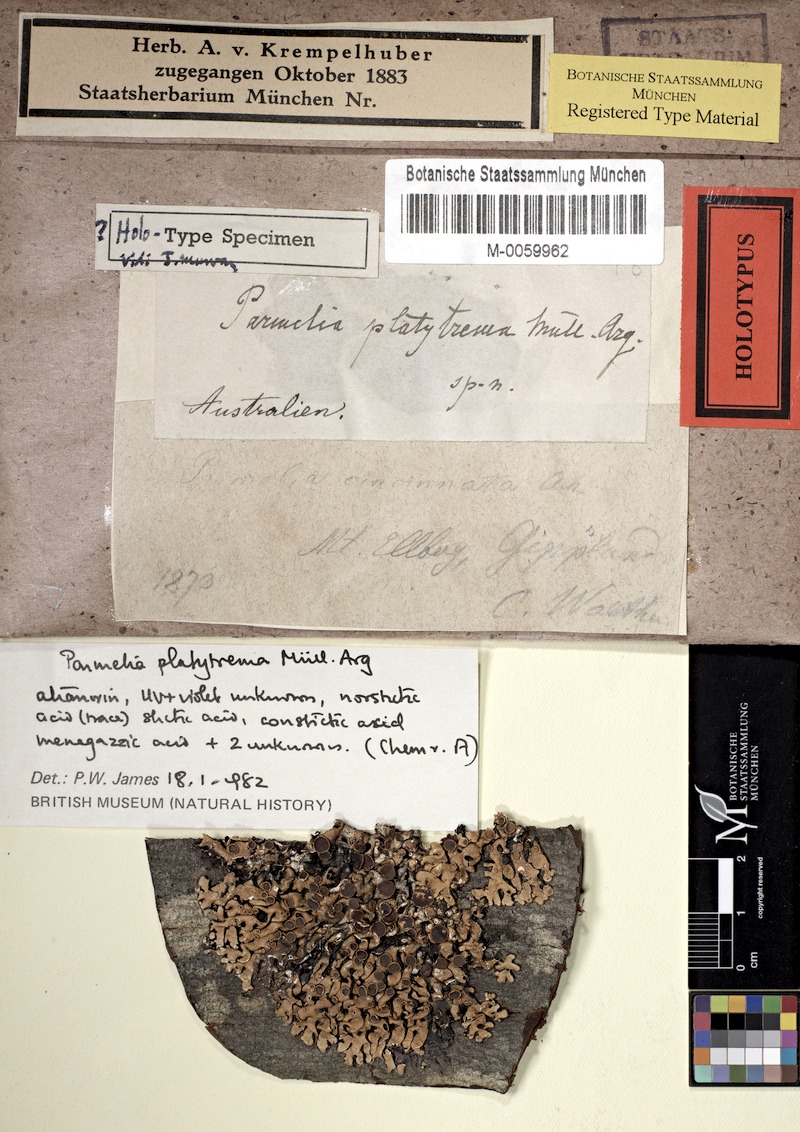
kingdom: Fungi
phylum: Ascomycota
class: Lecanoromycetes
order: Lecanorales
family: Parmeliaceae
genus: Menegazzia
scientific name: Menegazzia platytrema
